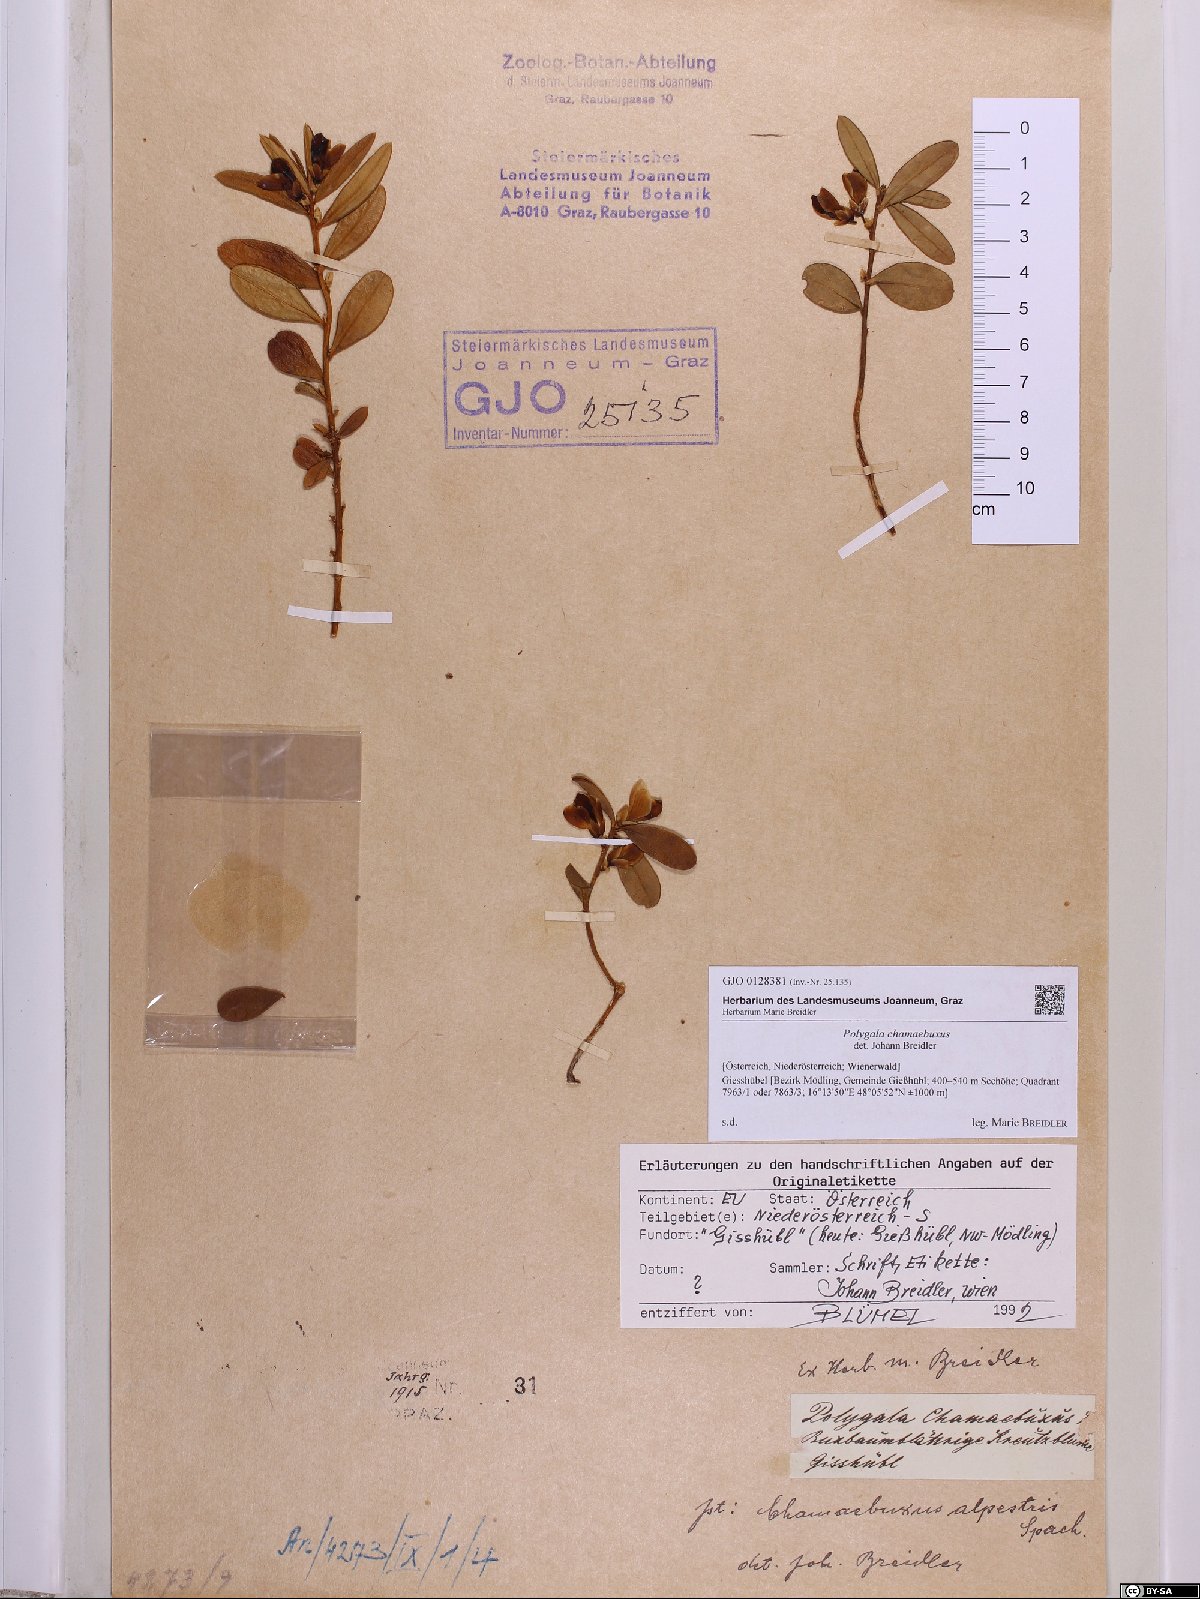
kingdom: Plantae
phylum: Tracheophyta
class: Magnoliopsida
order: Fabales
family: Polygalaceae
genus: Polygaloides
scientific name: Polygaloides chamaebuxus
